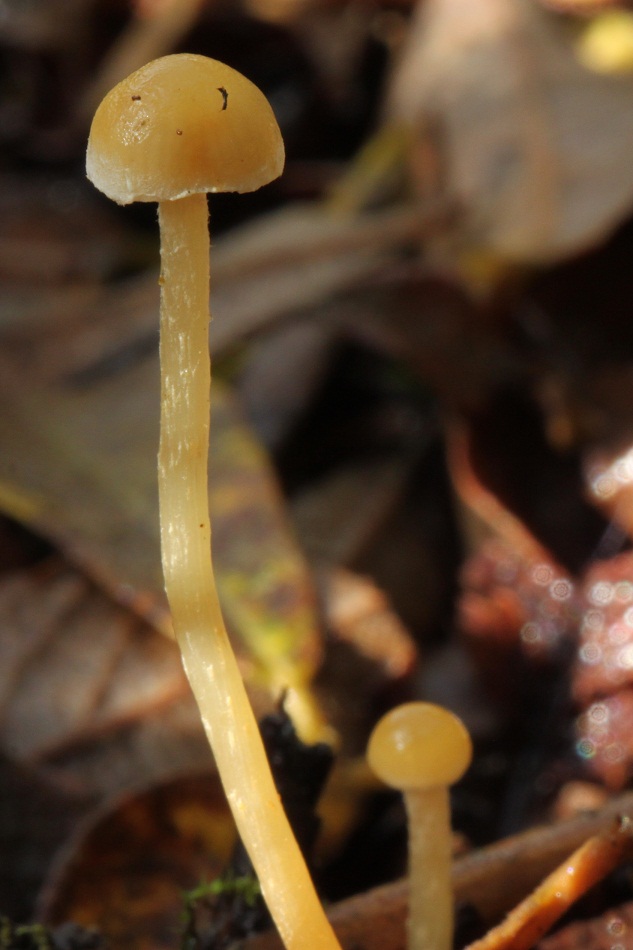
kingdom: Fungi
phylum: Basidiomycota
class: Agaricomycetes
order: Agaricales
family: Strophariaceae
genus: Hypholoma
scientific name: Hypholoma elongatum
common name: slank svovlhat
